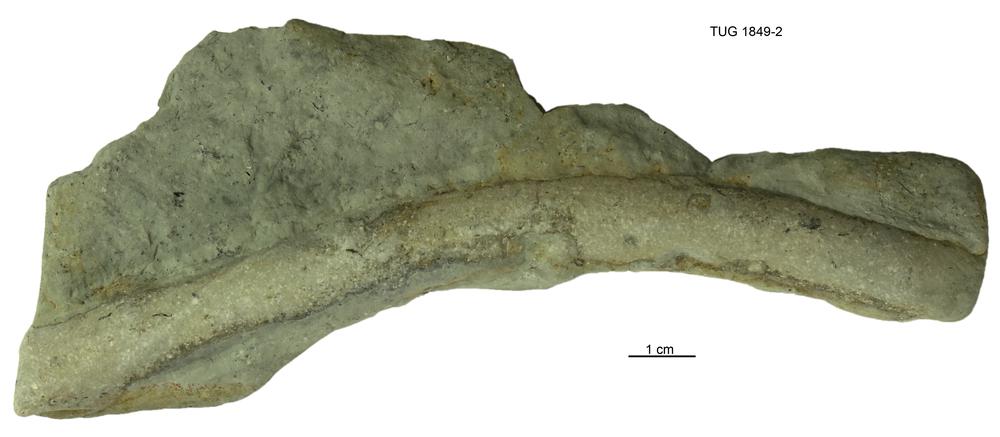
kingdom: Animalia
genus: Palaeophycus
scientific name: Palaeophycus tubularis
